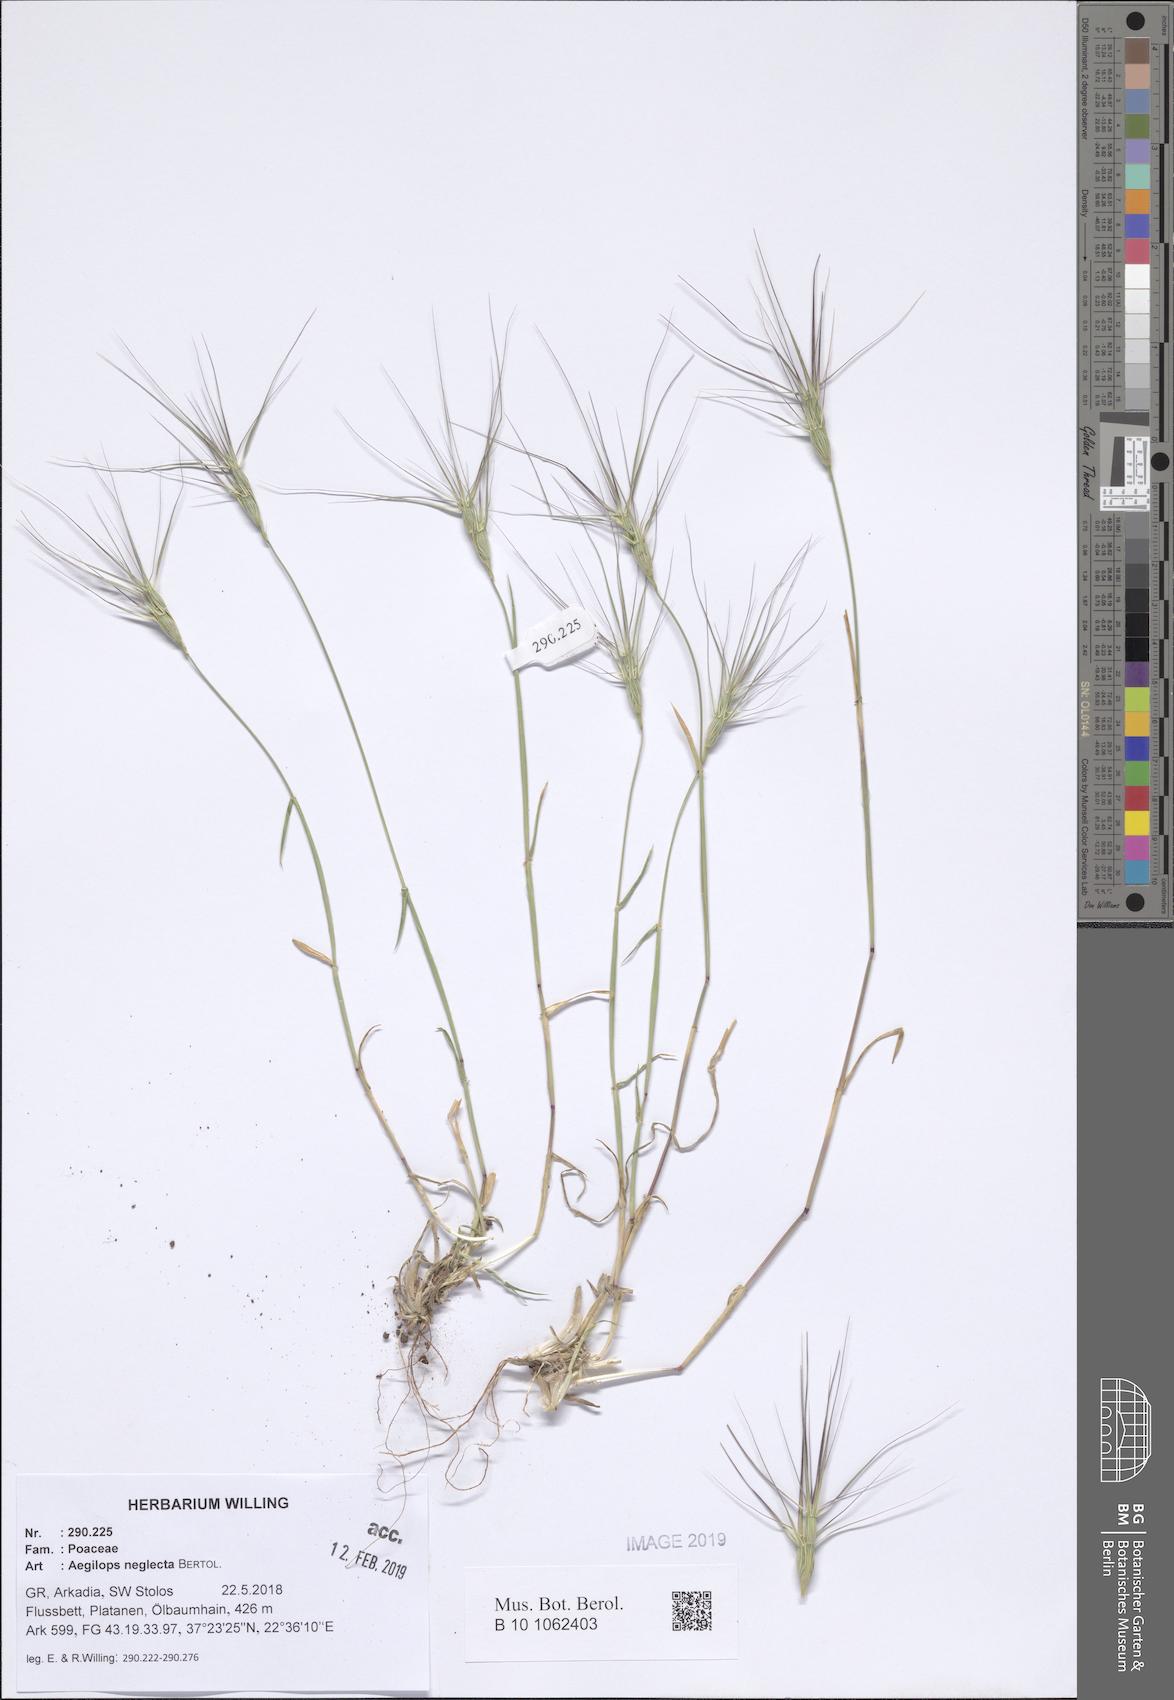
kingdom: Plantae
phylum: Tracheophyta
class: Liliopsida
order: Poales
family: Poaceae
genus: Aegilops
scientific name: Aegilops neglecta
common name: Three-awn goat grass
